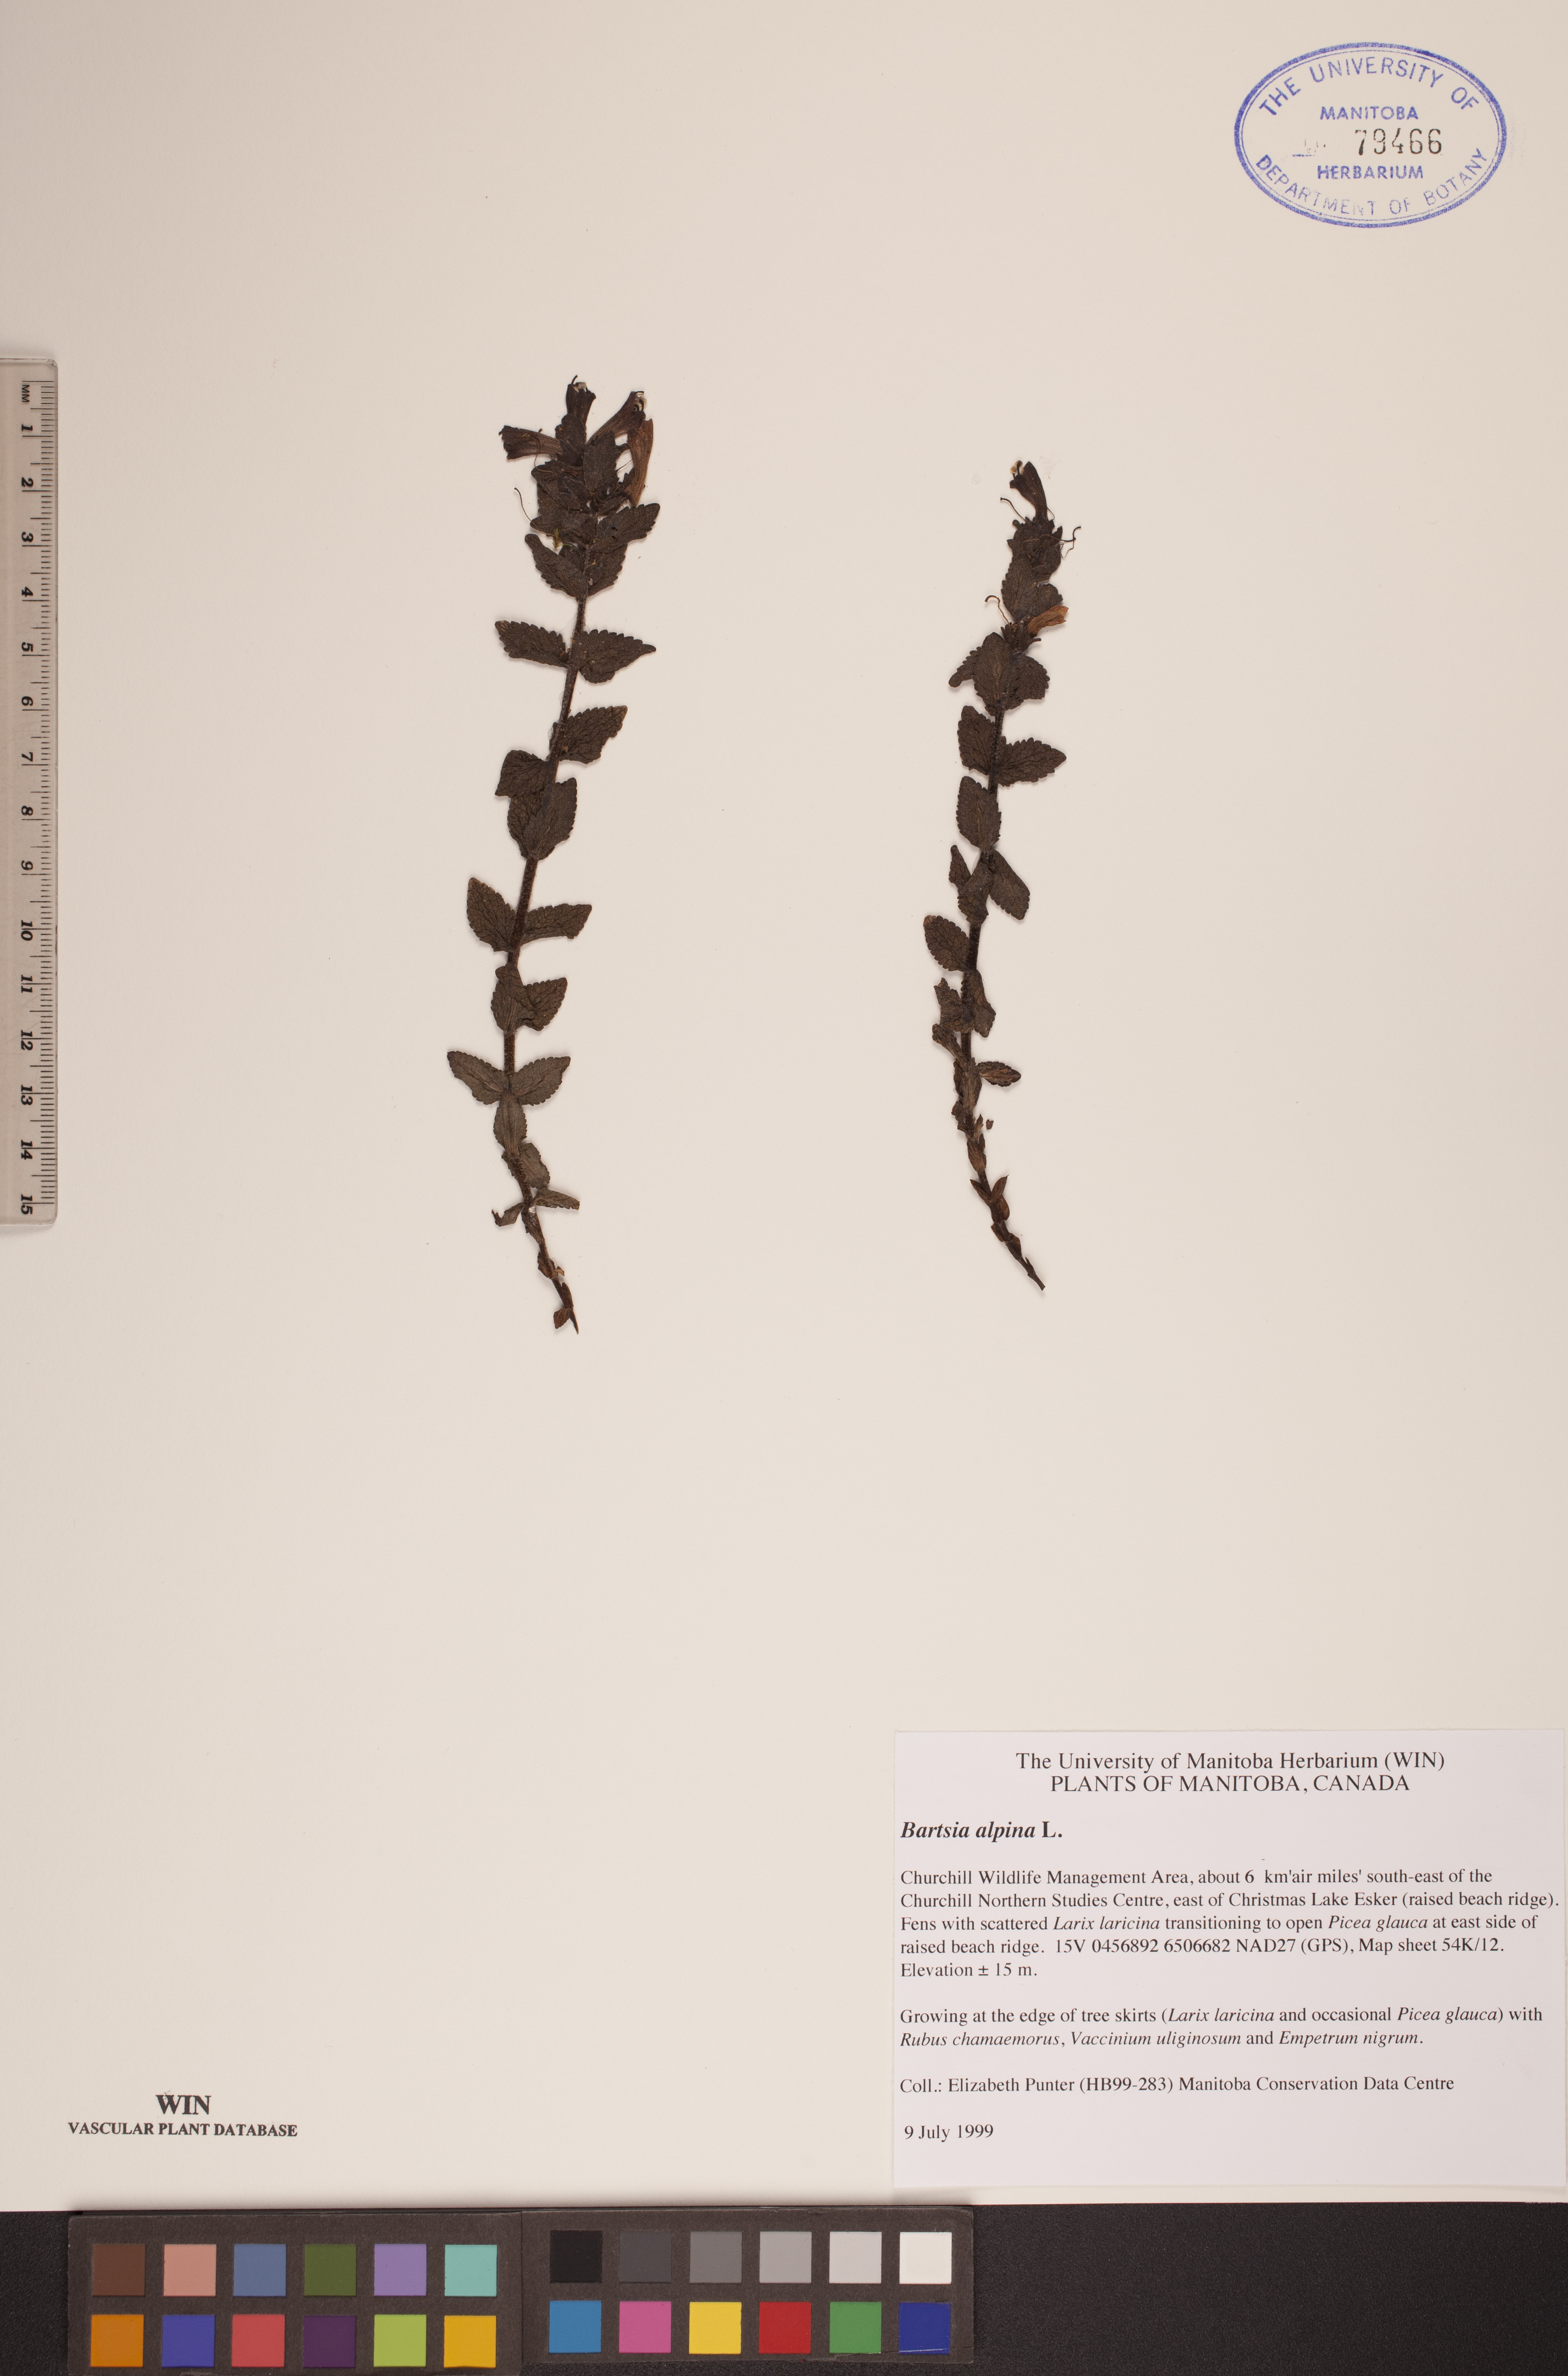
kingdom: Plantae
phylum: Tracheophyta
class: Magnoliopsida
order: Lamiales
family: Orobanchaceae
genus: Bartsia
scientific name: Bartsia alpina
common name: Alpine bartsia
